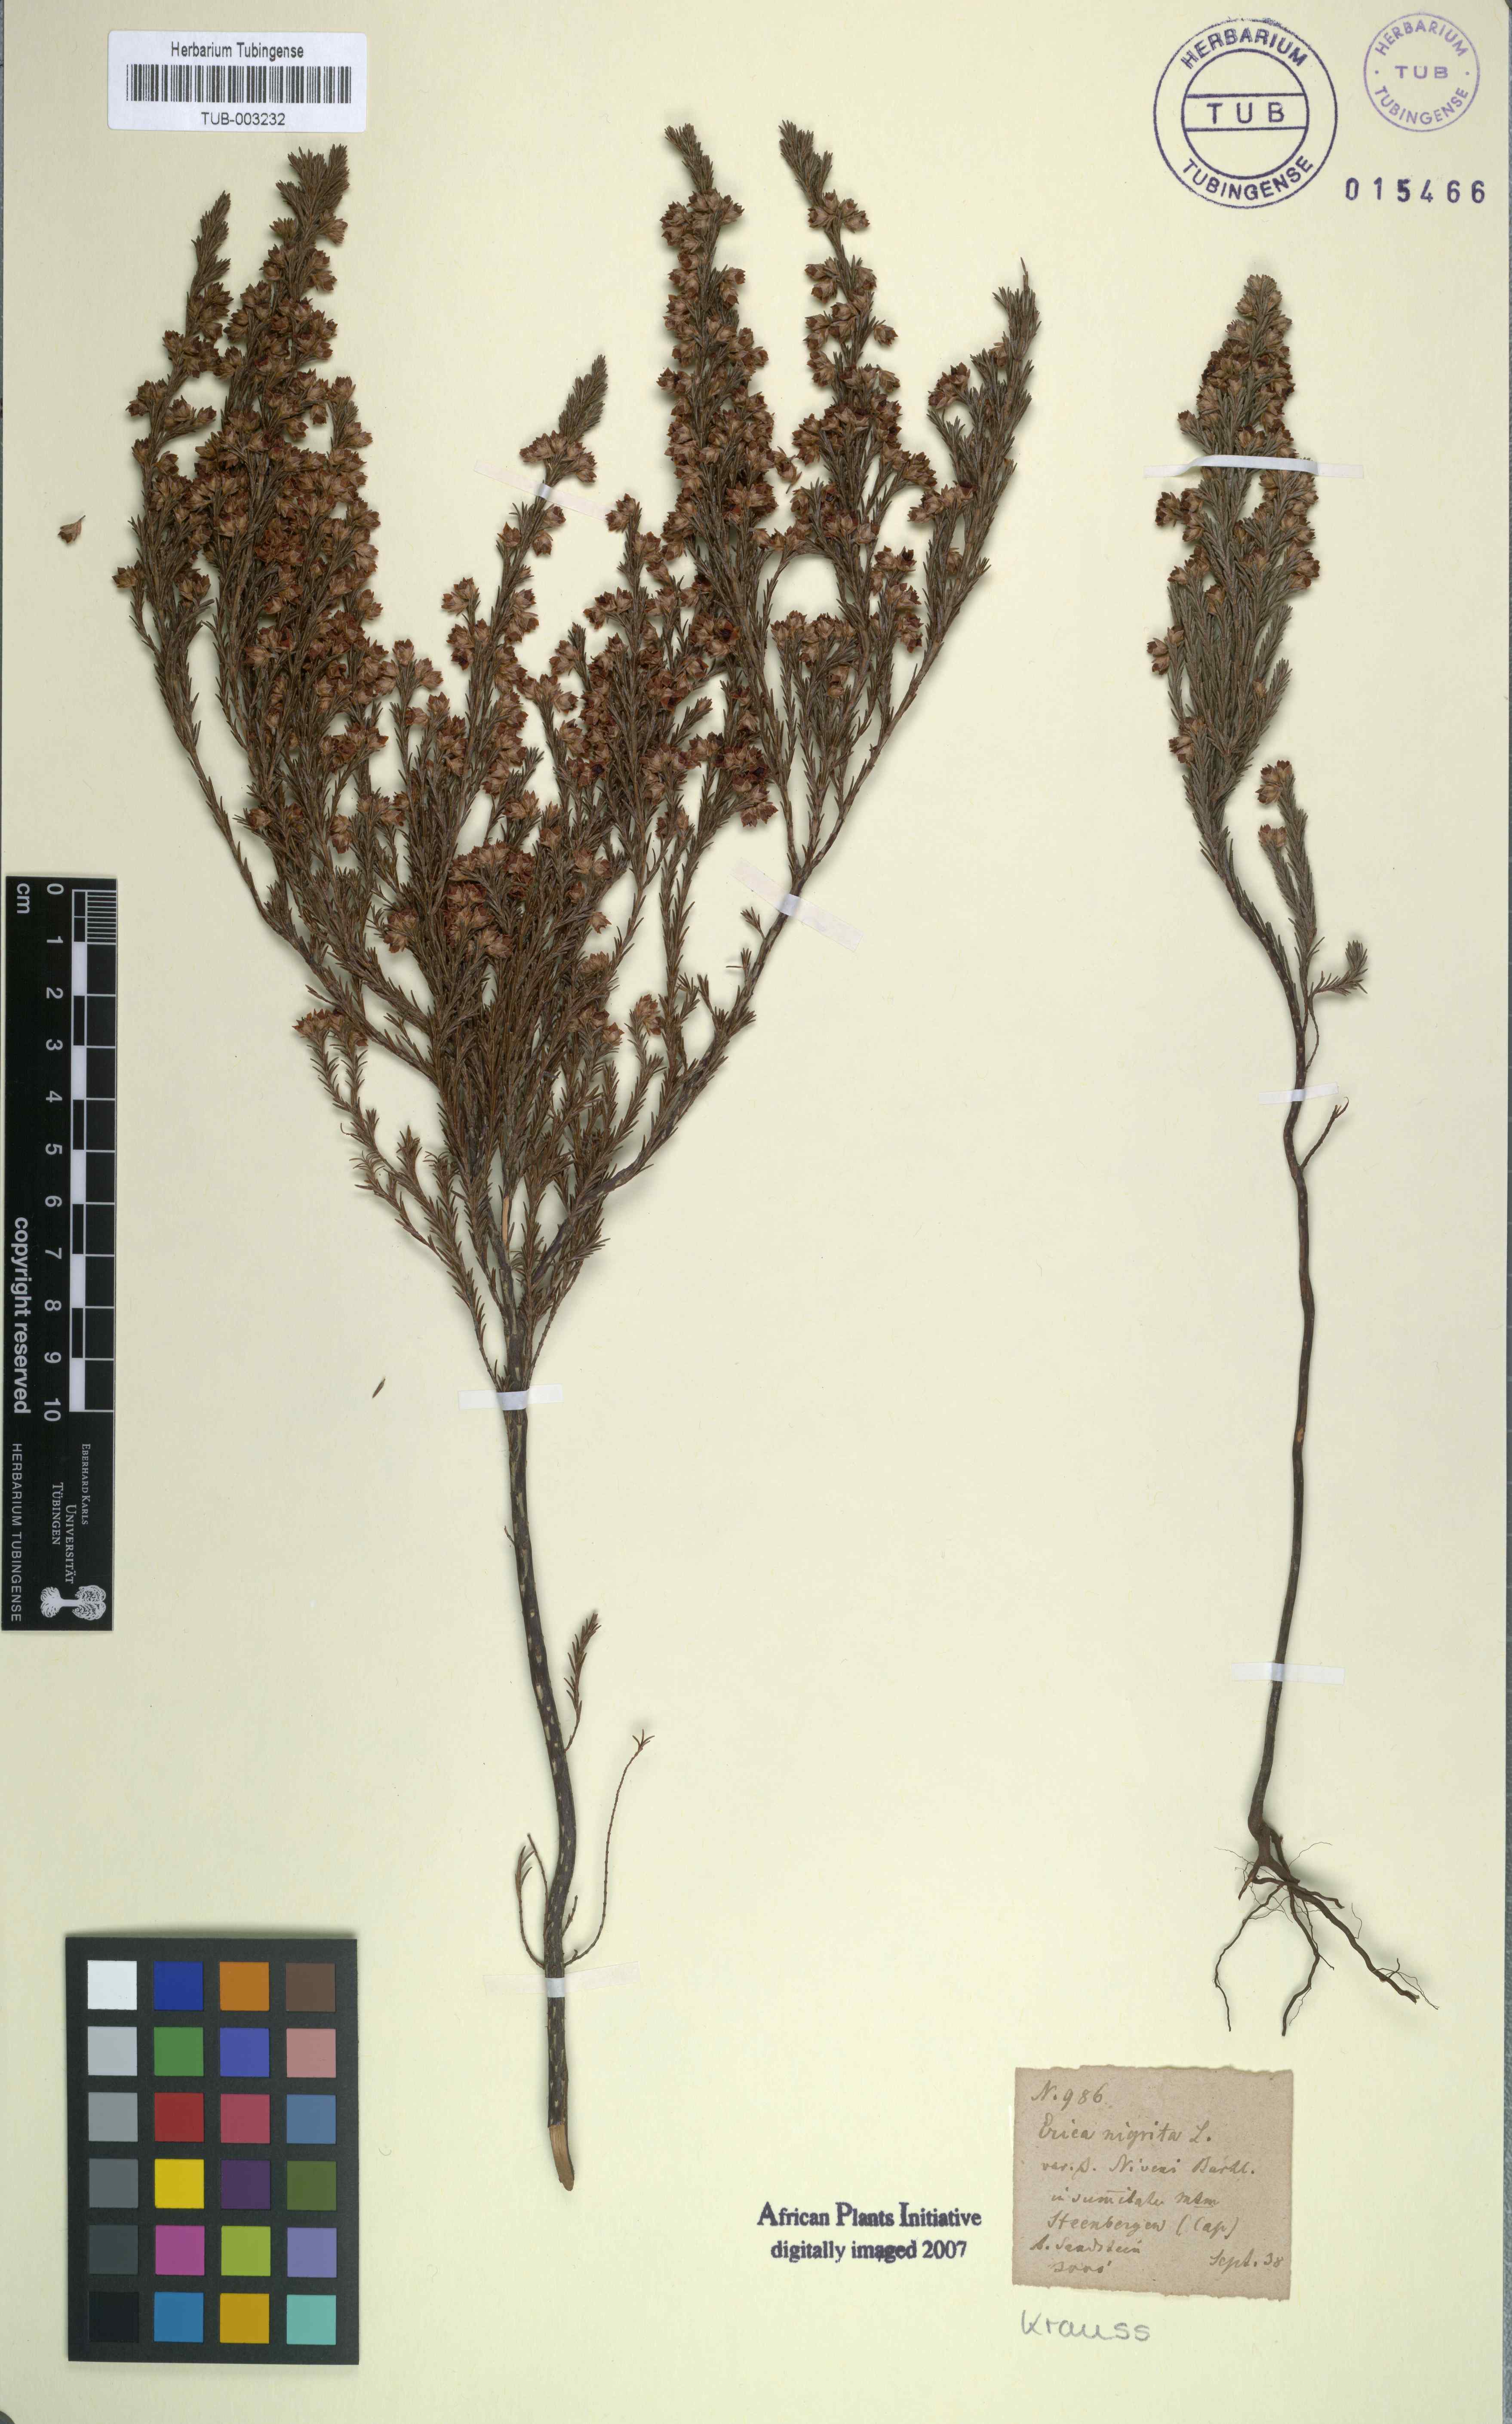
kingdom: Plantae
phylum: Tracheophyta
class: Magnoliopsida
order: Ericales
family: Ericaceae
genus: Erica
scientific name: Erica calycina
